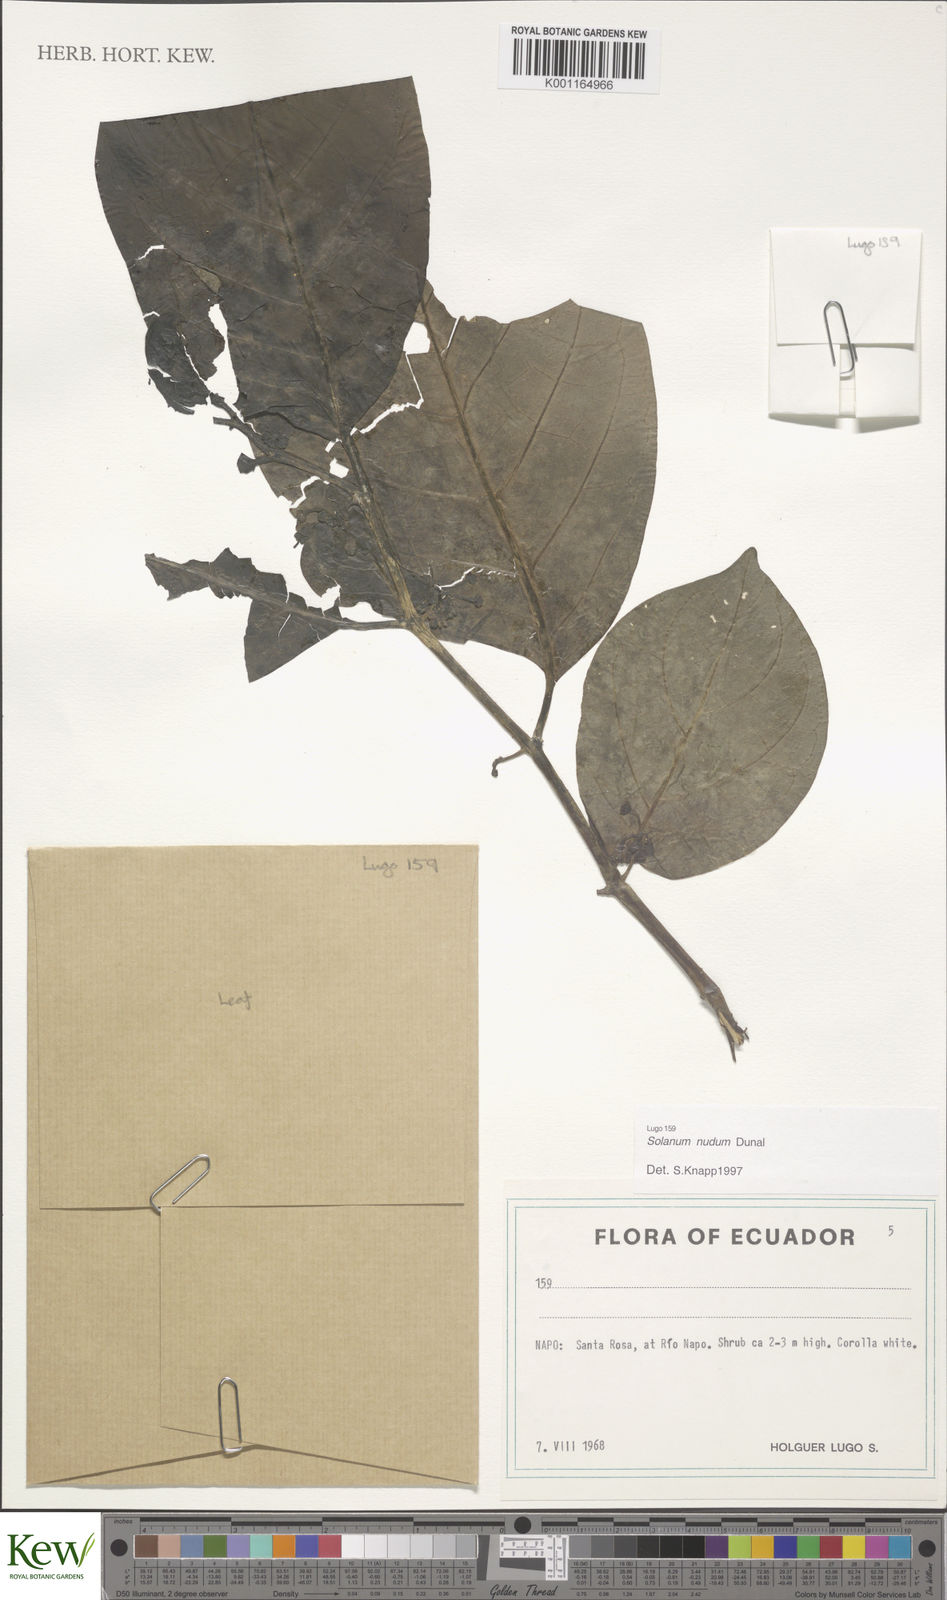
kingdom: Plantae
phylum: Tracheophyta
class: Magnoliopsida
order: Solanales
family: Solanaceae
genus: Solanum
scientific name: Solanum nudum
